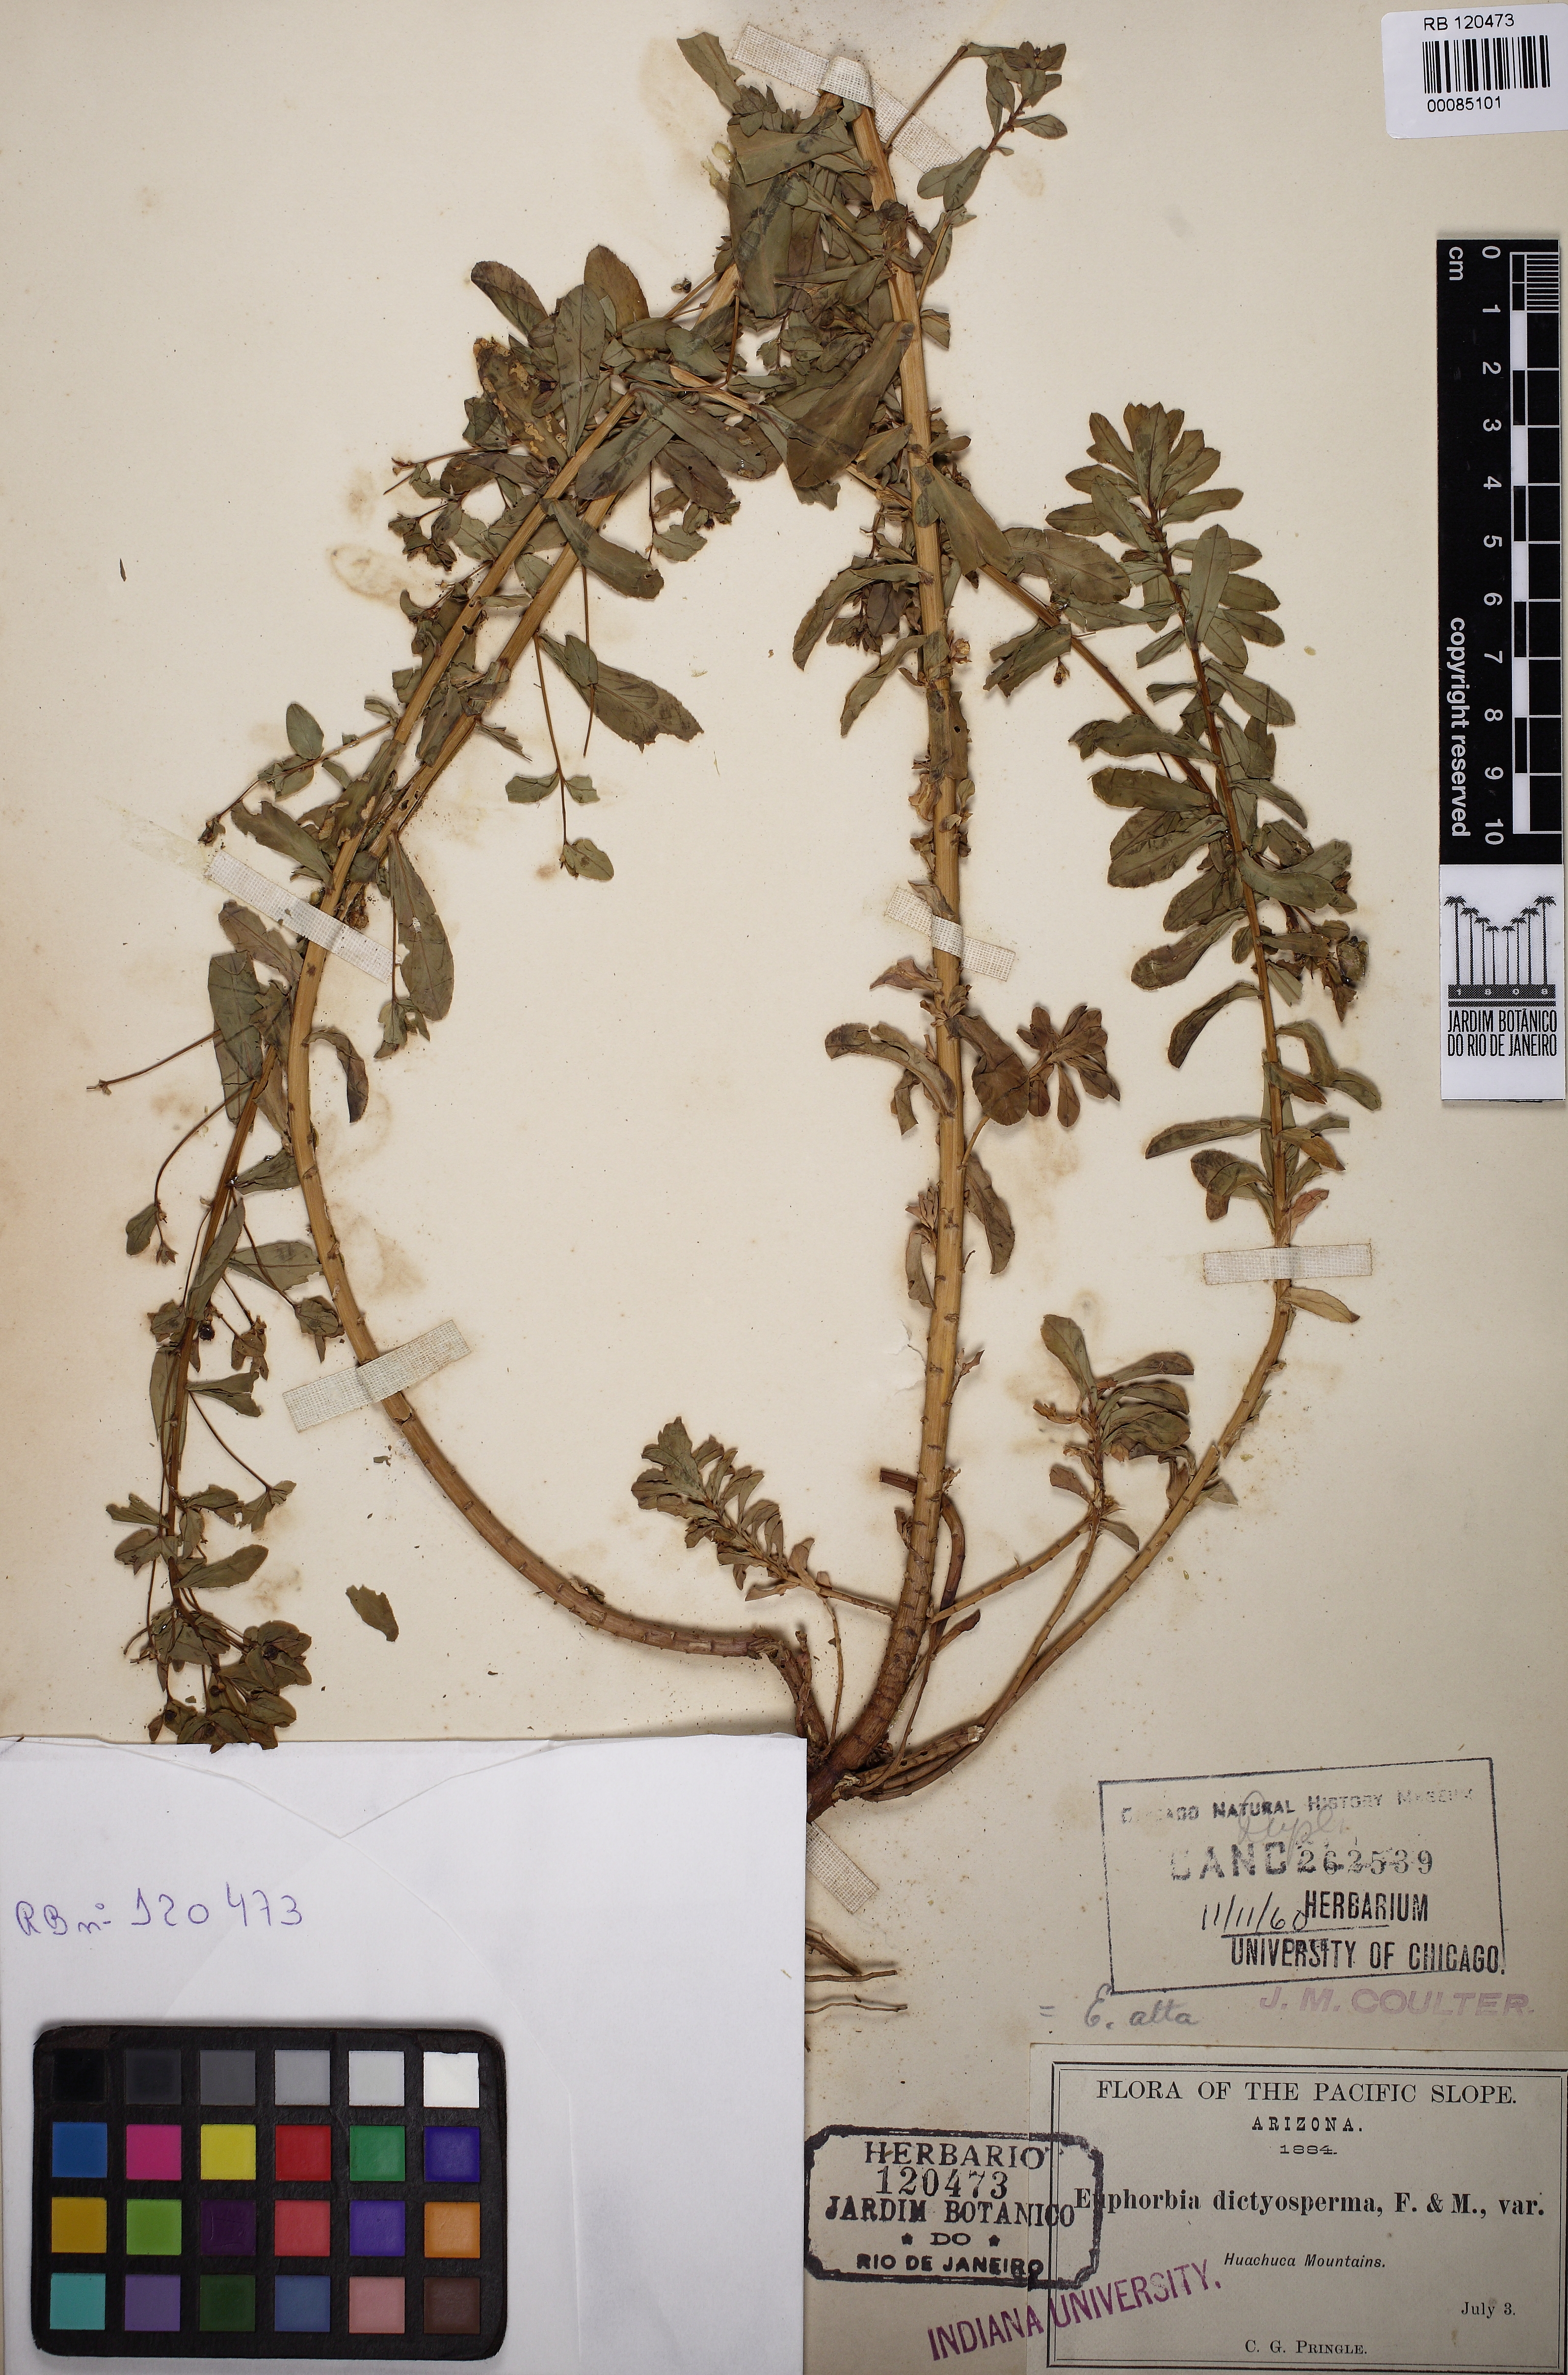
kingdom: Plantae
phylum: Tracheophyta
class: Magnoliopsida
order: Malpighiales
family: Euphorbiaceae
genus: Euphorbia
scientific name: Euphorbia spathulata
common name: Blunt spurge
